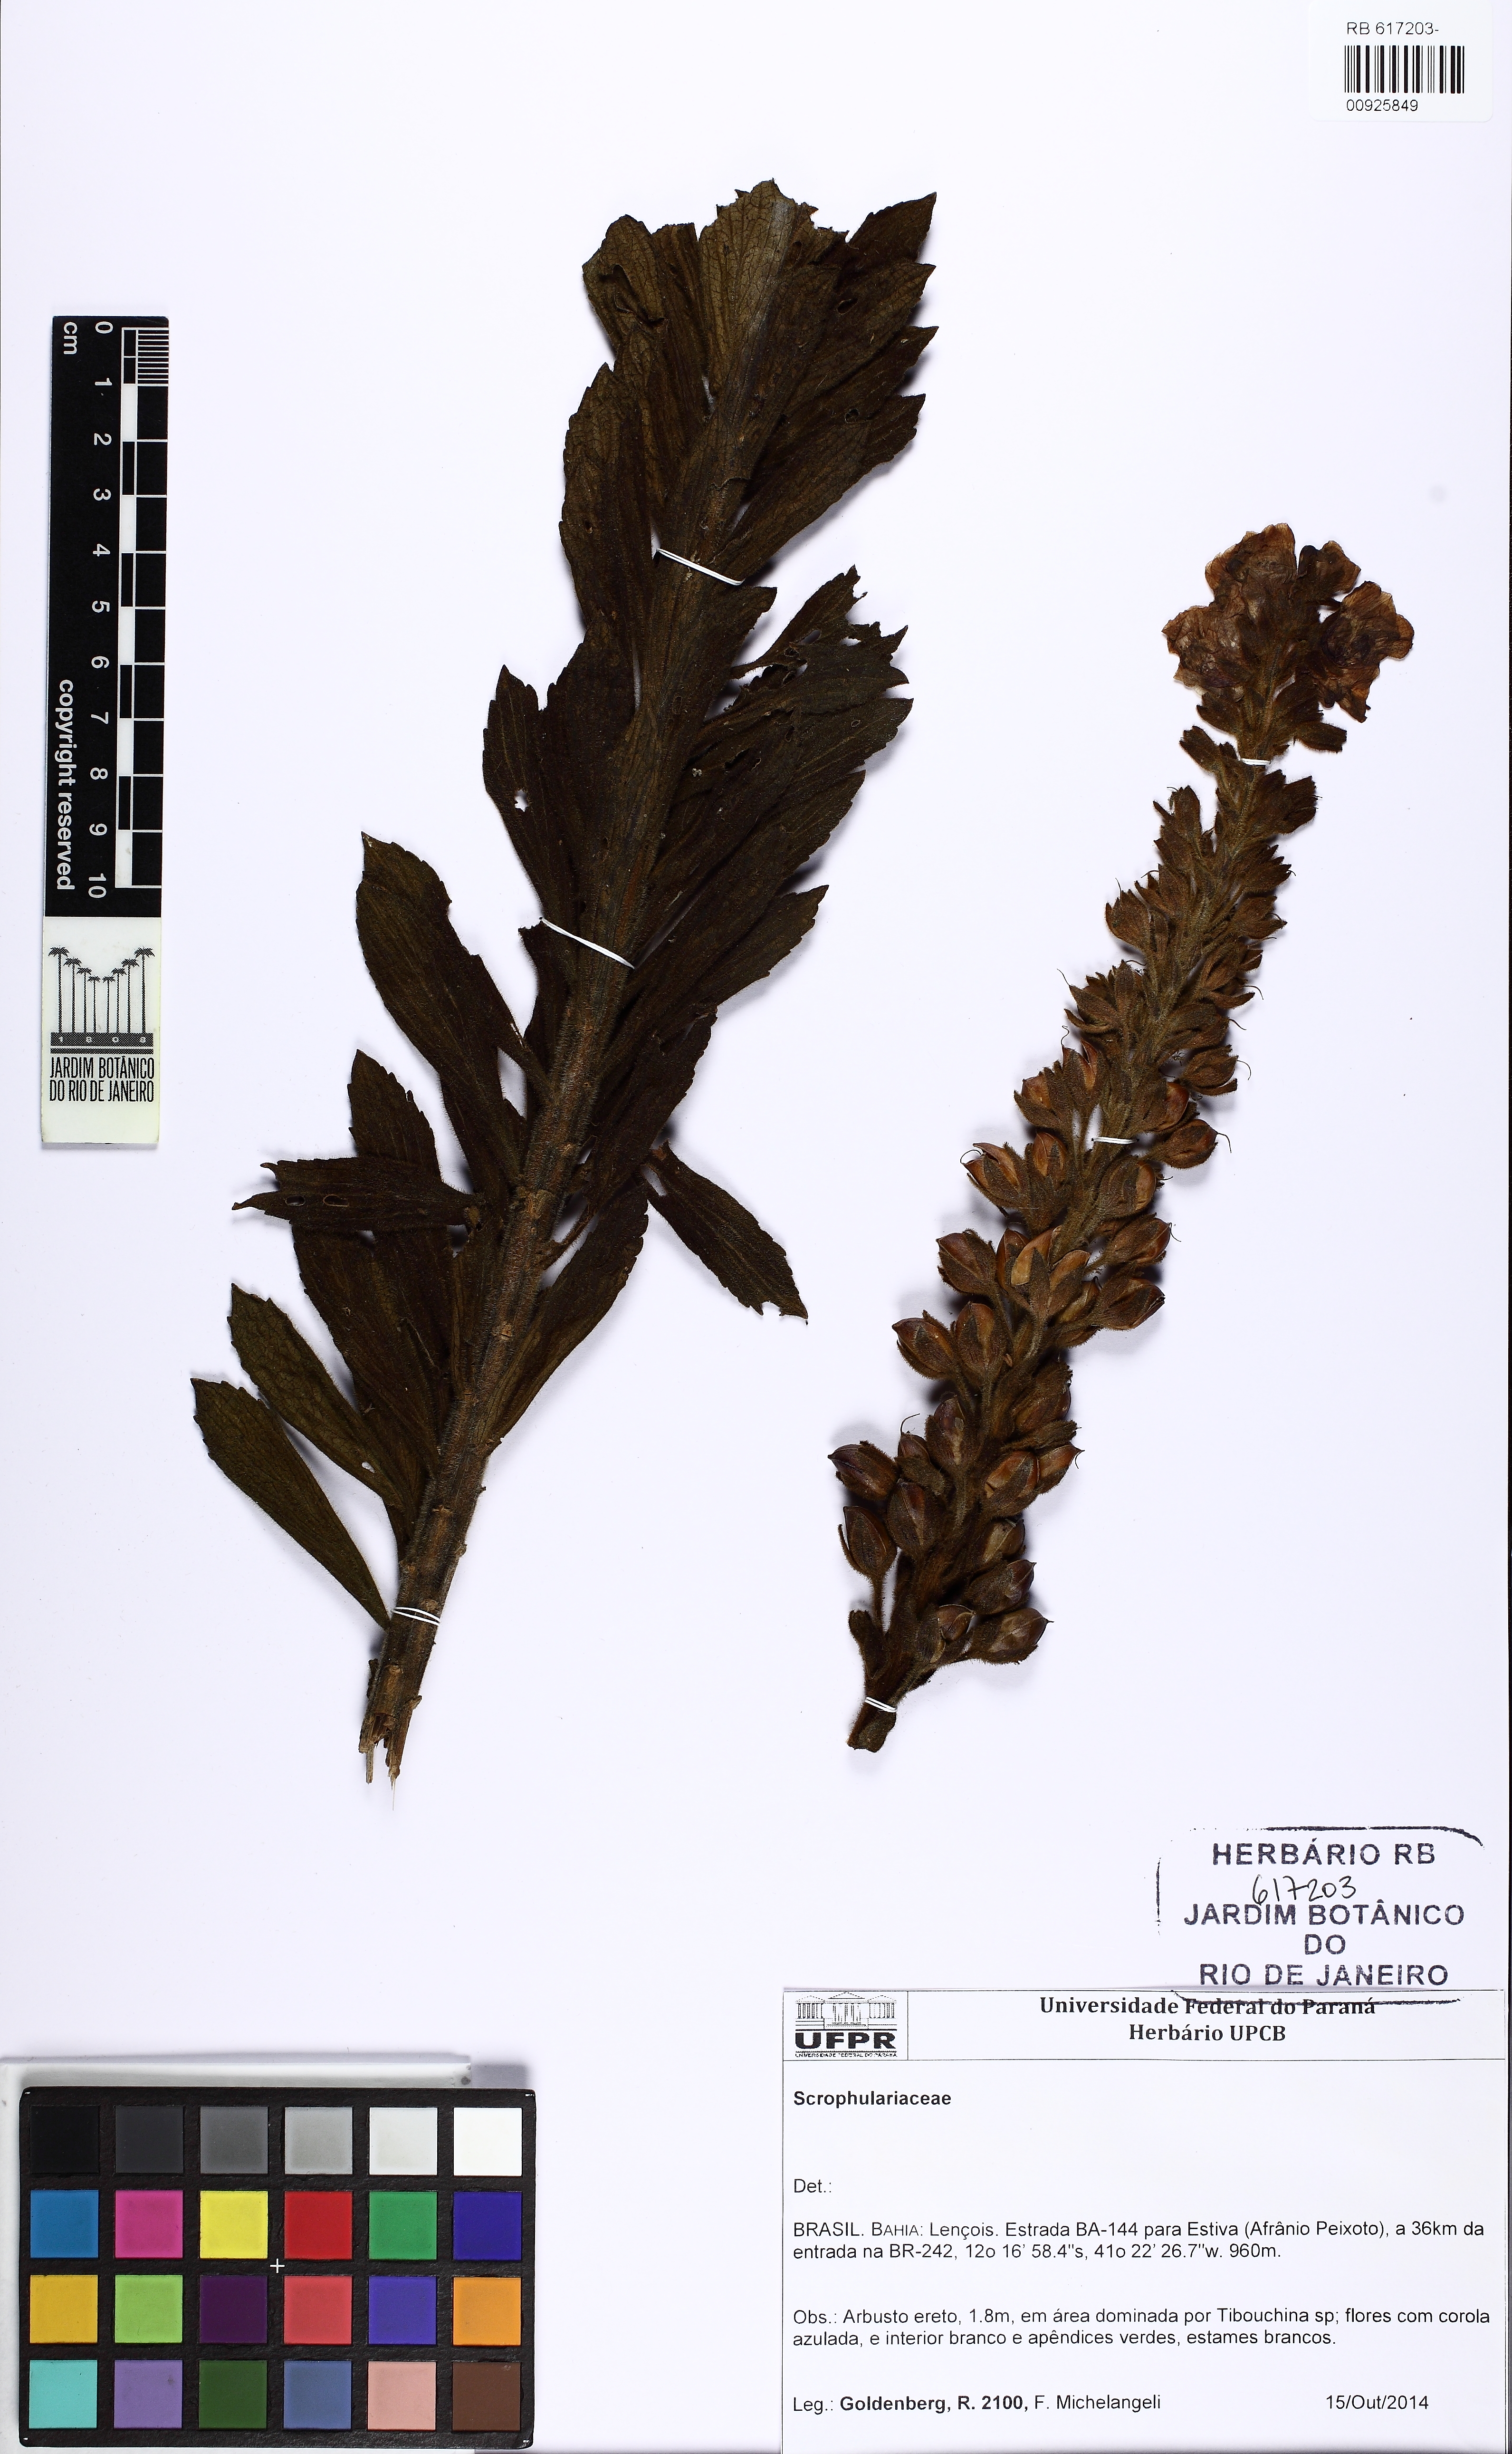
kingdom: Plantae
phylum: Tracheophyta
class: Magnoliopsida
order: Lamiales
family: Plantaginaceae
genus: Angelonia
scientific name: Angelonia tomentosa
